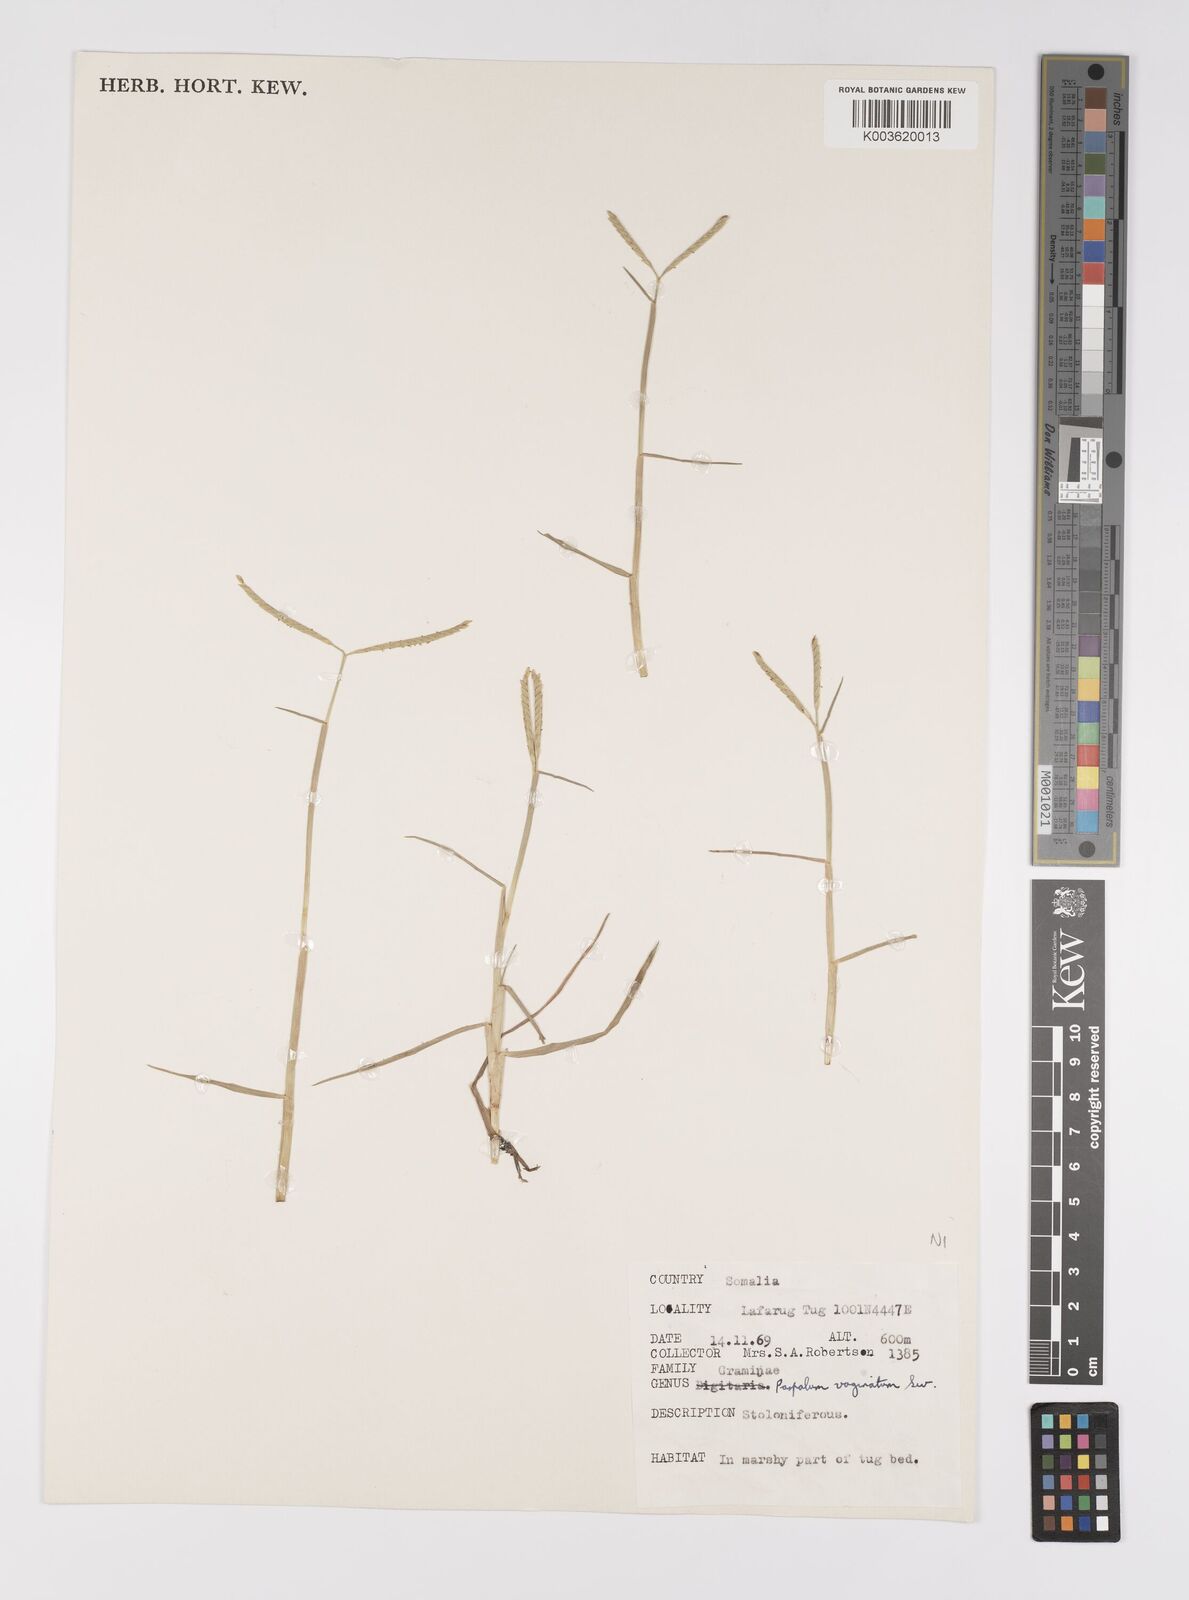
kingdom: Plantae
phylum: Tracheophyta
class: Liliopsida
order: Poales
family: Poaceae
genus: Paspalum
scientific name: Paspalum decumbens
